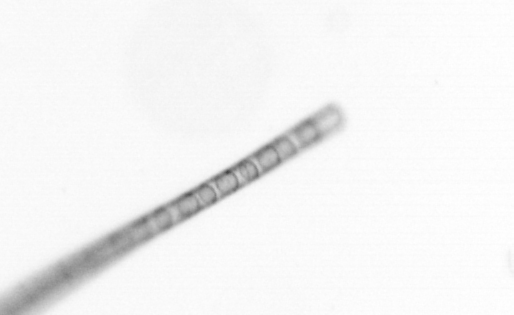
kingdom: Chromista
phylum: Ochrophyta
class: Bacillariophyceae
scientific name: Bacillariophyceae
